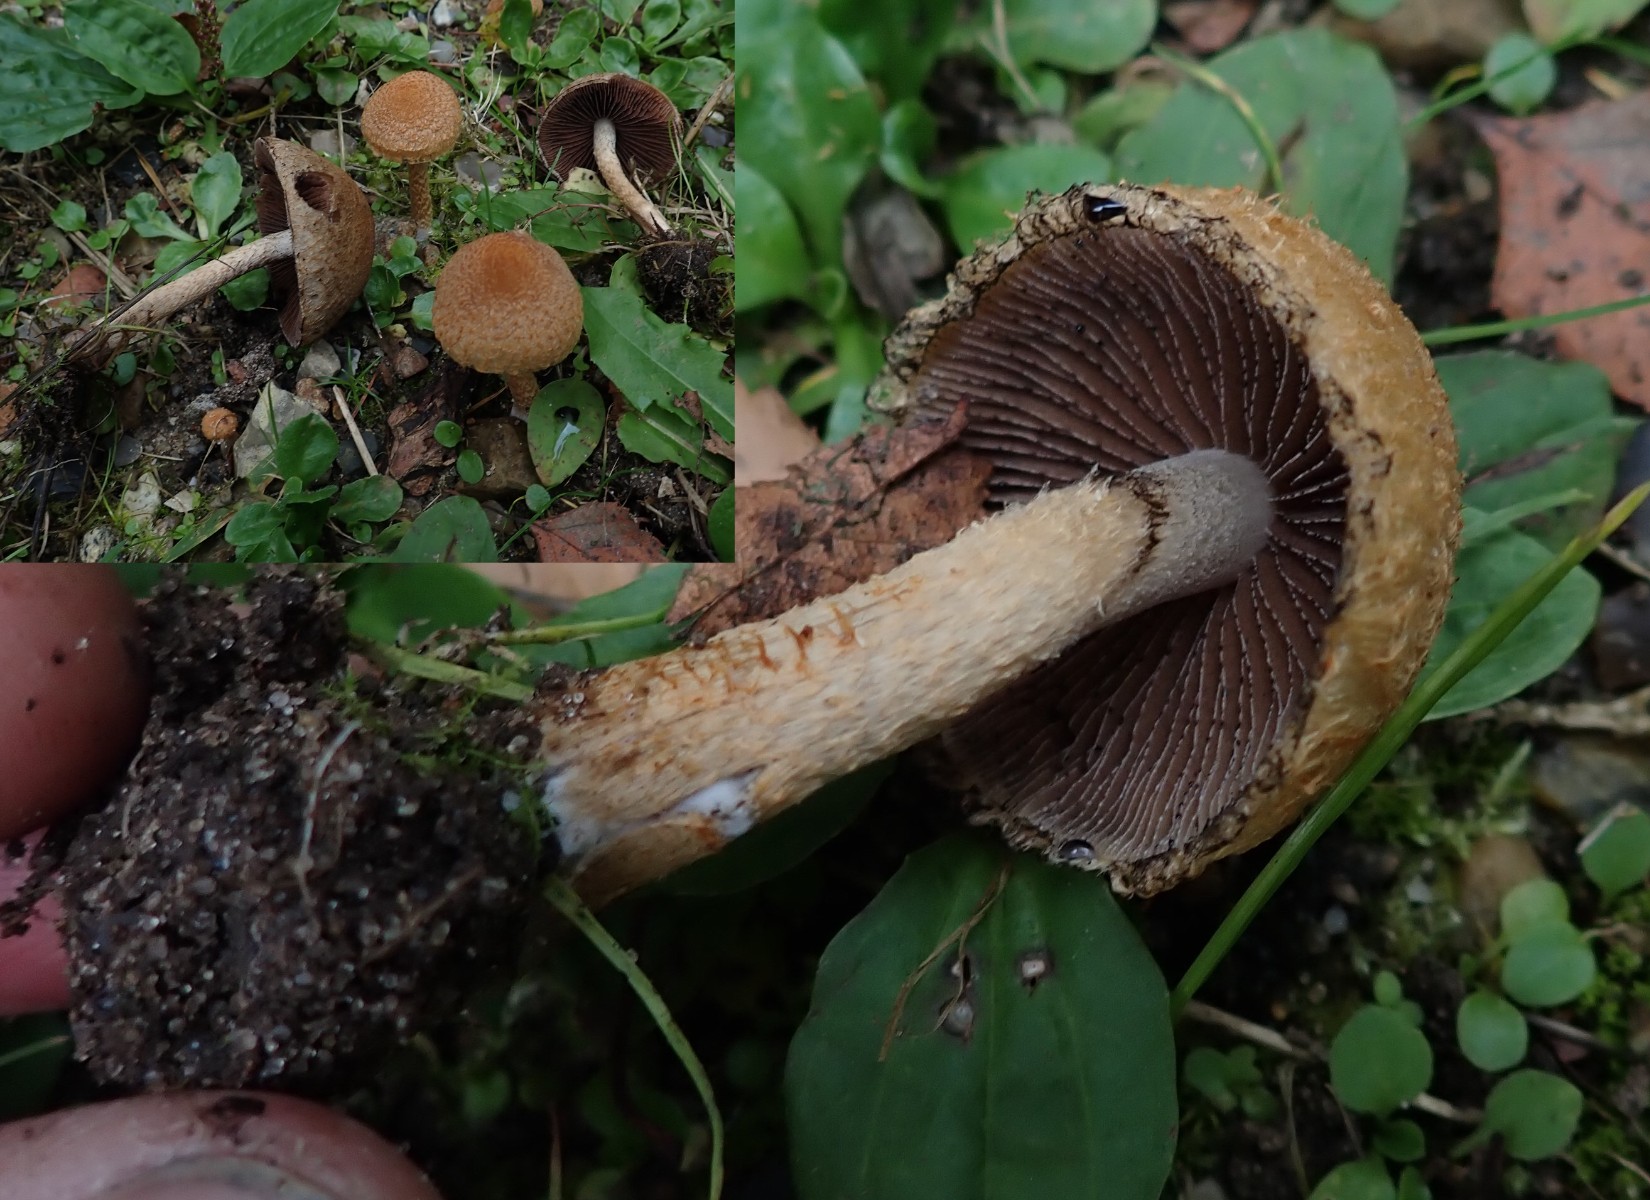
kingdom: Fungi
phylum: Basidiomycota
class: Agaricomycetes
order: Agaricales
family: Psathyrellaceae
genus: Lacrymaria
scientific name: Lacrymaria lacrymabunda
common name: grædende mørkhat
